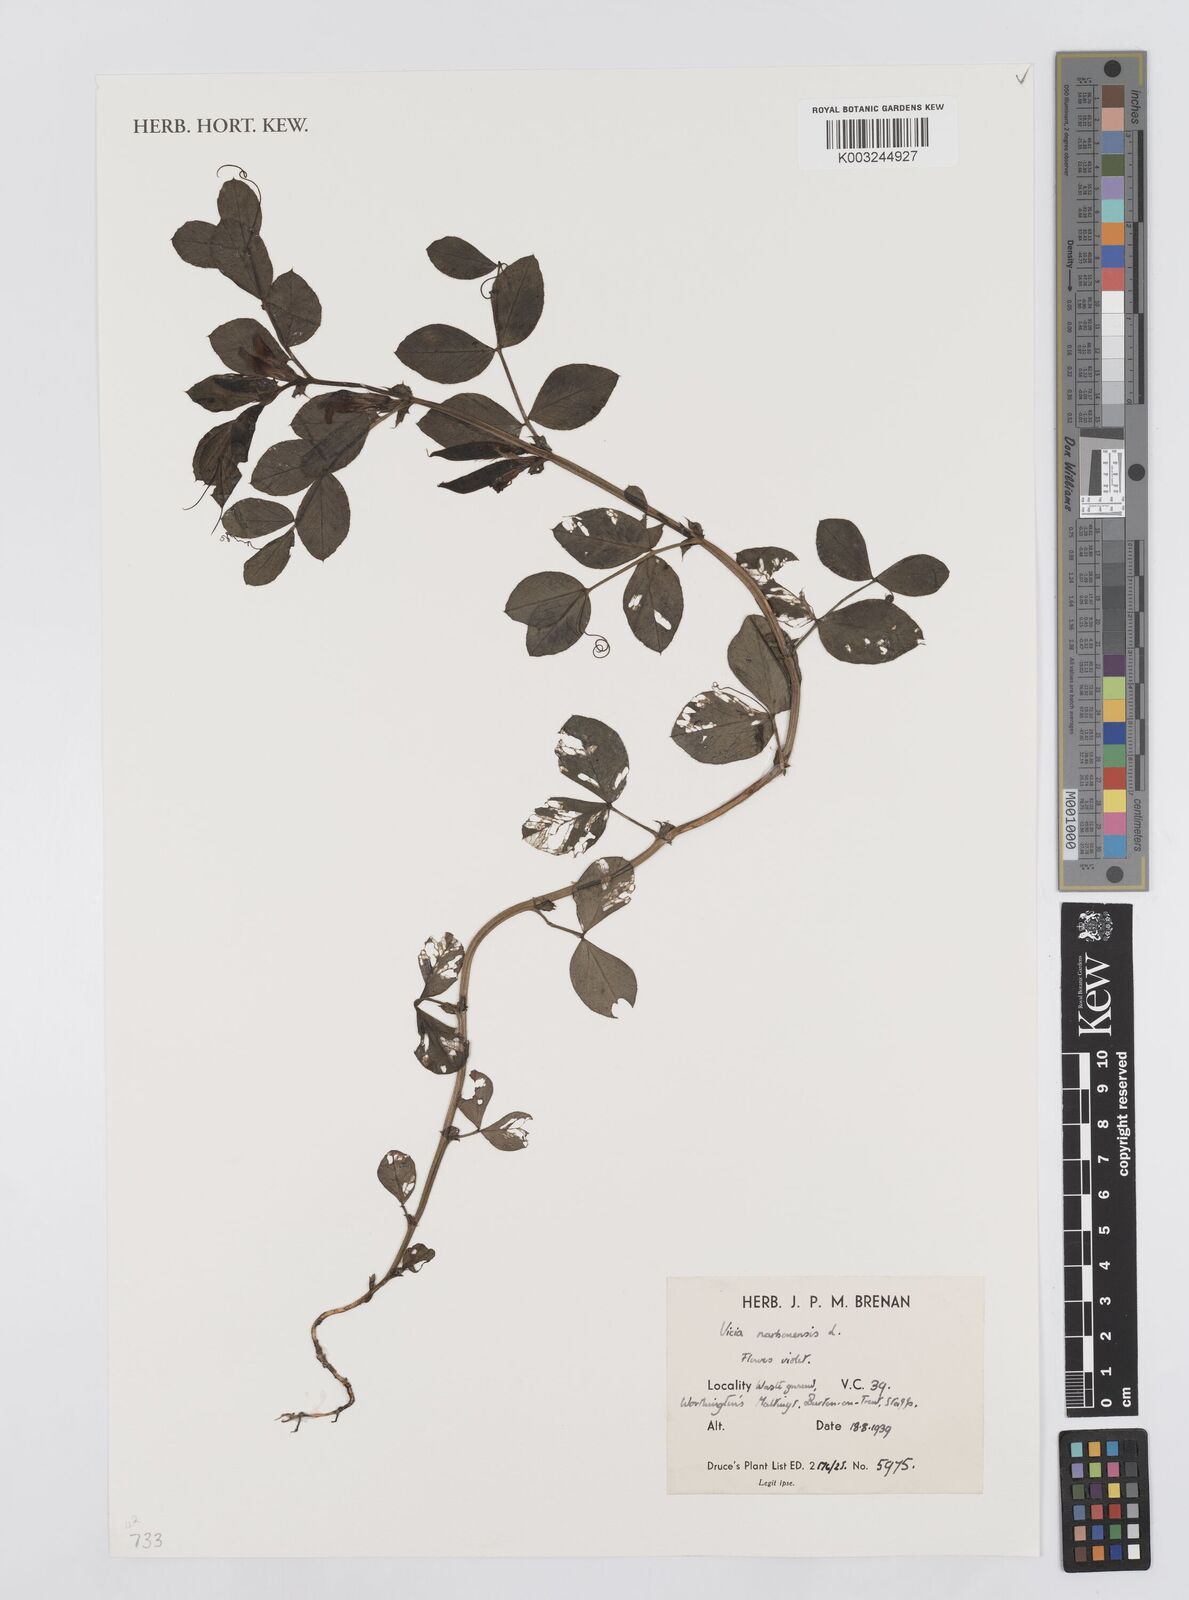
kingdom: Plantae
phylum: Tracheophyta
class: Magnoliopsida
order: Fabales
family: Fabaceae
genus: Vicia
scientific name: Vicia narbonensis
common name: Narbonne vetch
